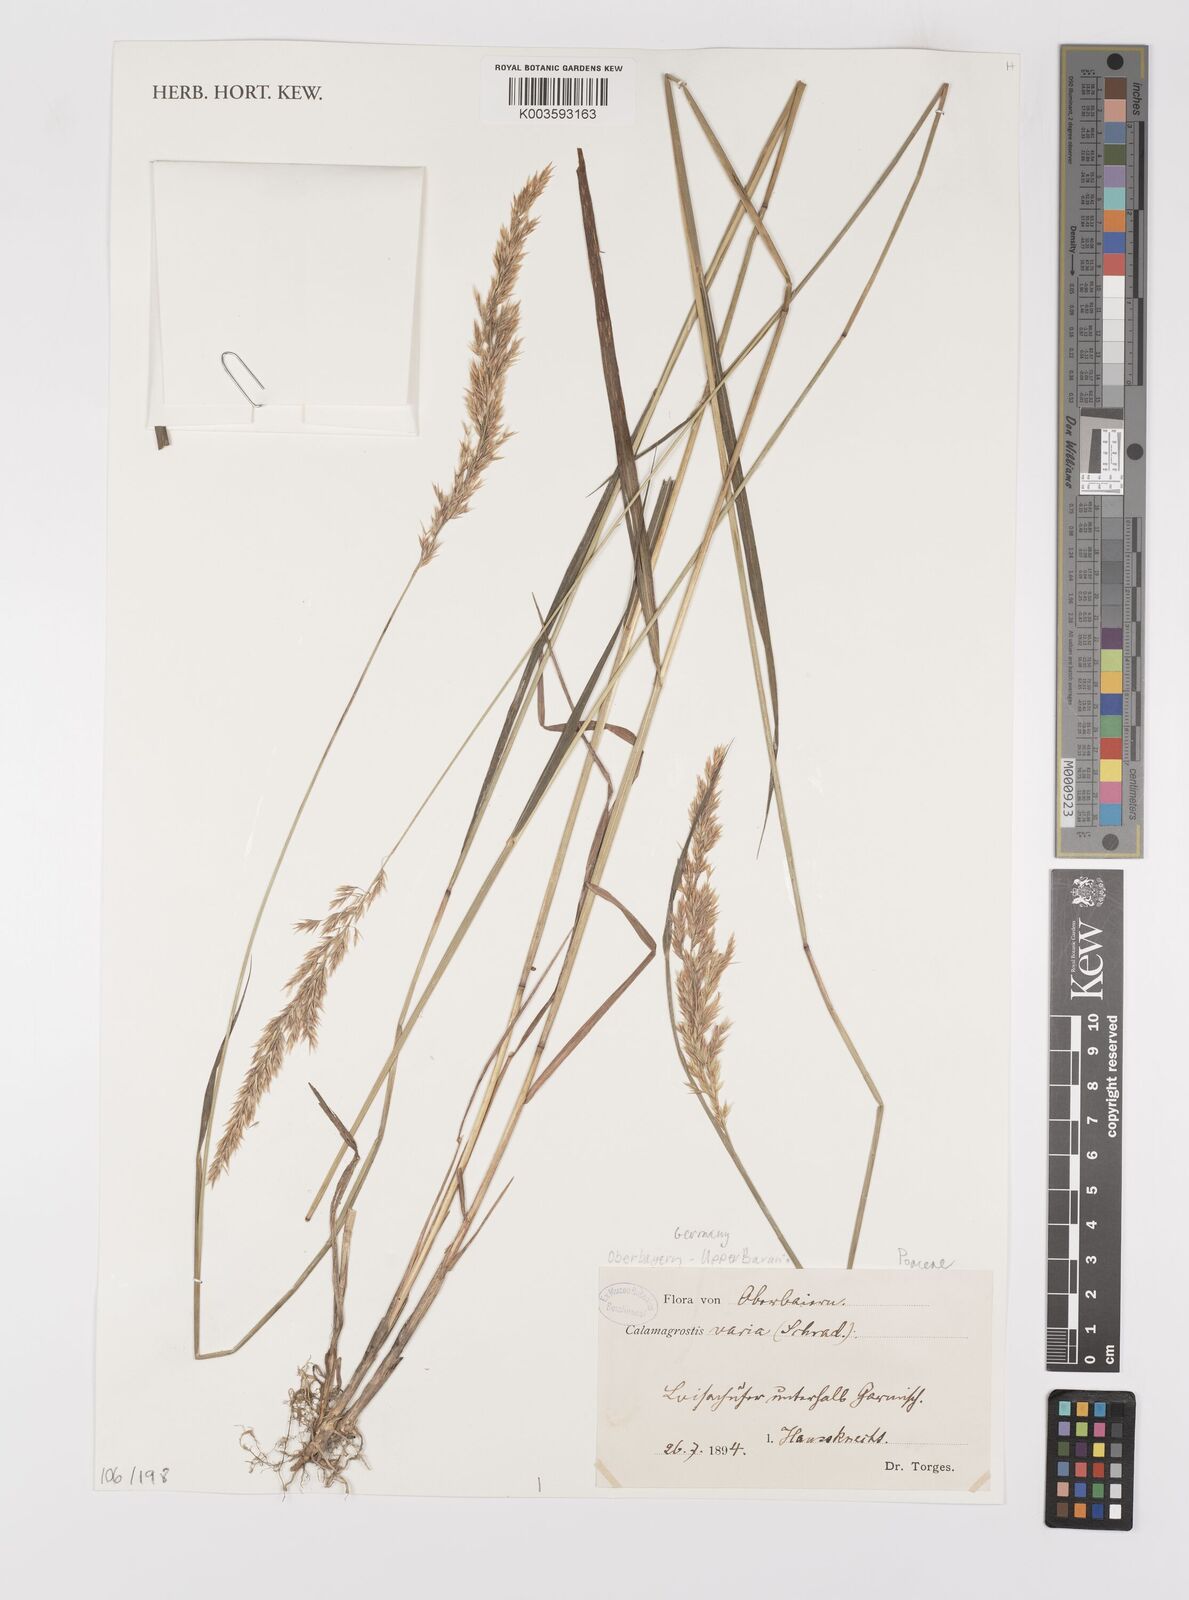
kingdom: Plantae
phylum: Tracheophyta
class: Liliopsida
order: Poales
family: Poaceae
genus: Calamagrostis
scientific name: Calamagrostis
